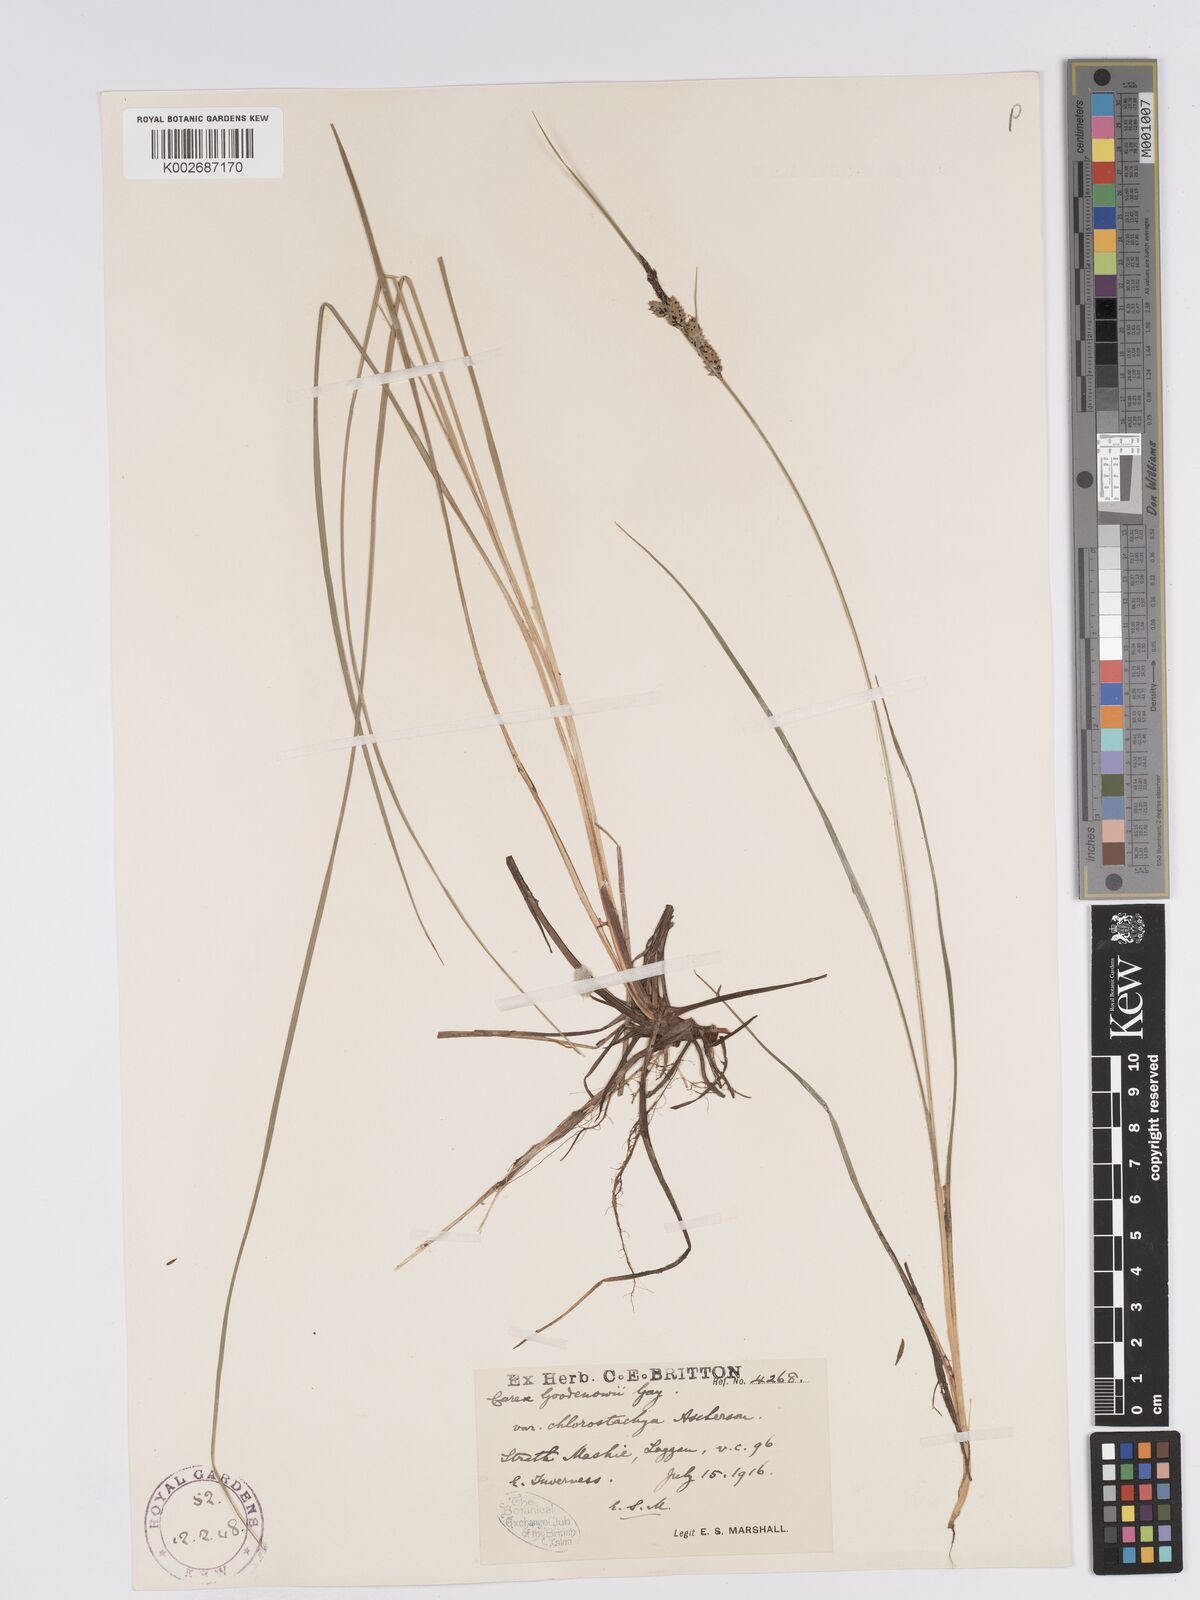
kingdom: Plantae
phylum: Tracheophyta
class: Liliopsida
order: Poales
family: Cyperaceae
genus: Carex
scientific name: Carex nigra
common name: Common sedge
